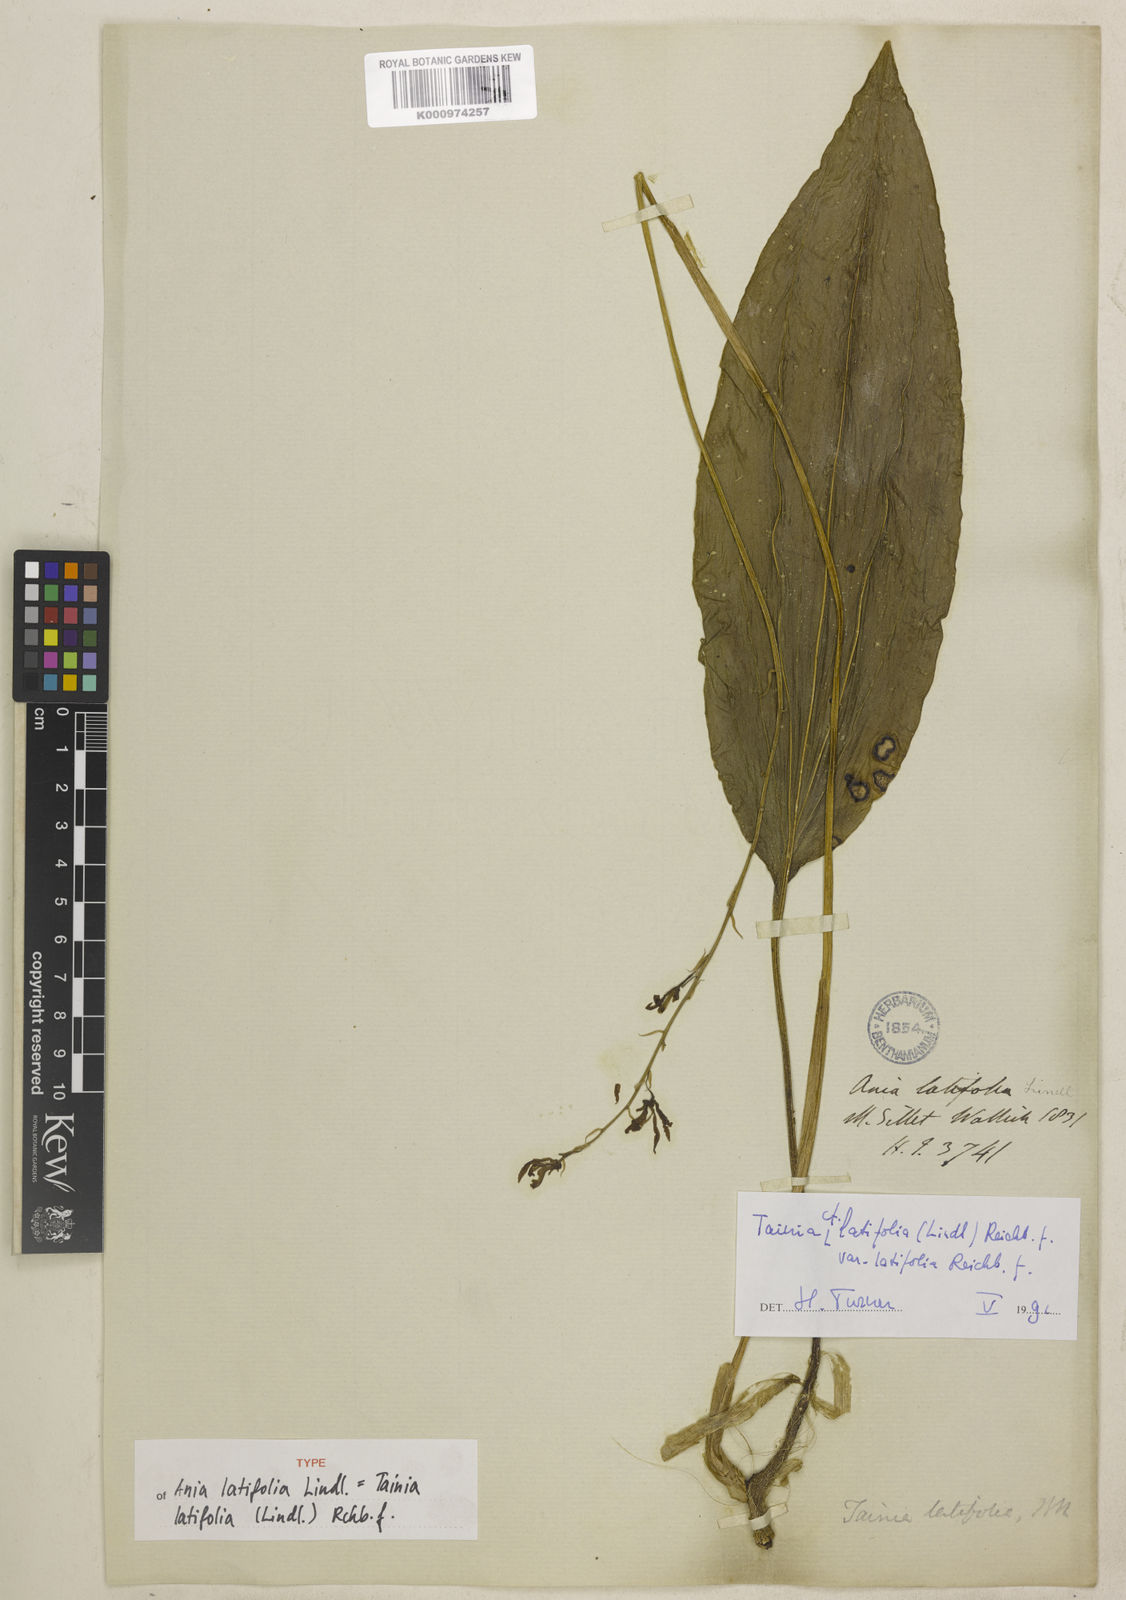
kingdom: Plantae
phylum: Tracheophyta
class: Liliopsida
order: Asparagales
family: Orchidaceae
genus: Tainia
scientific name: Tainia latifolia
